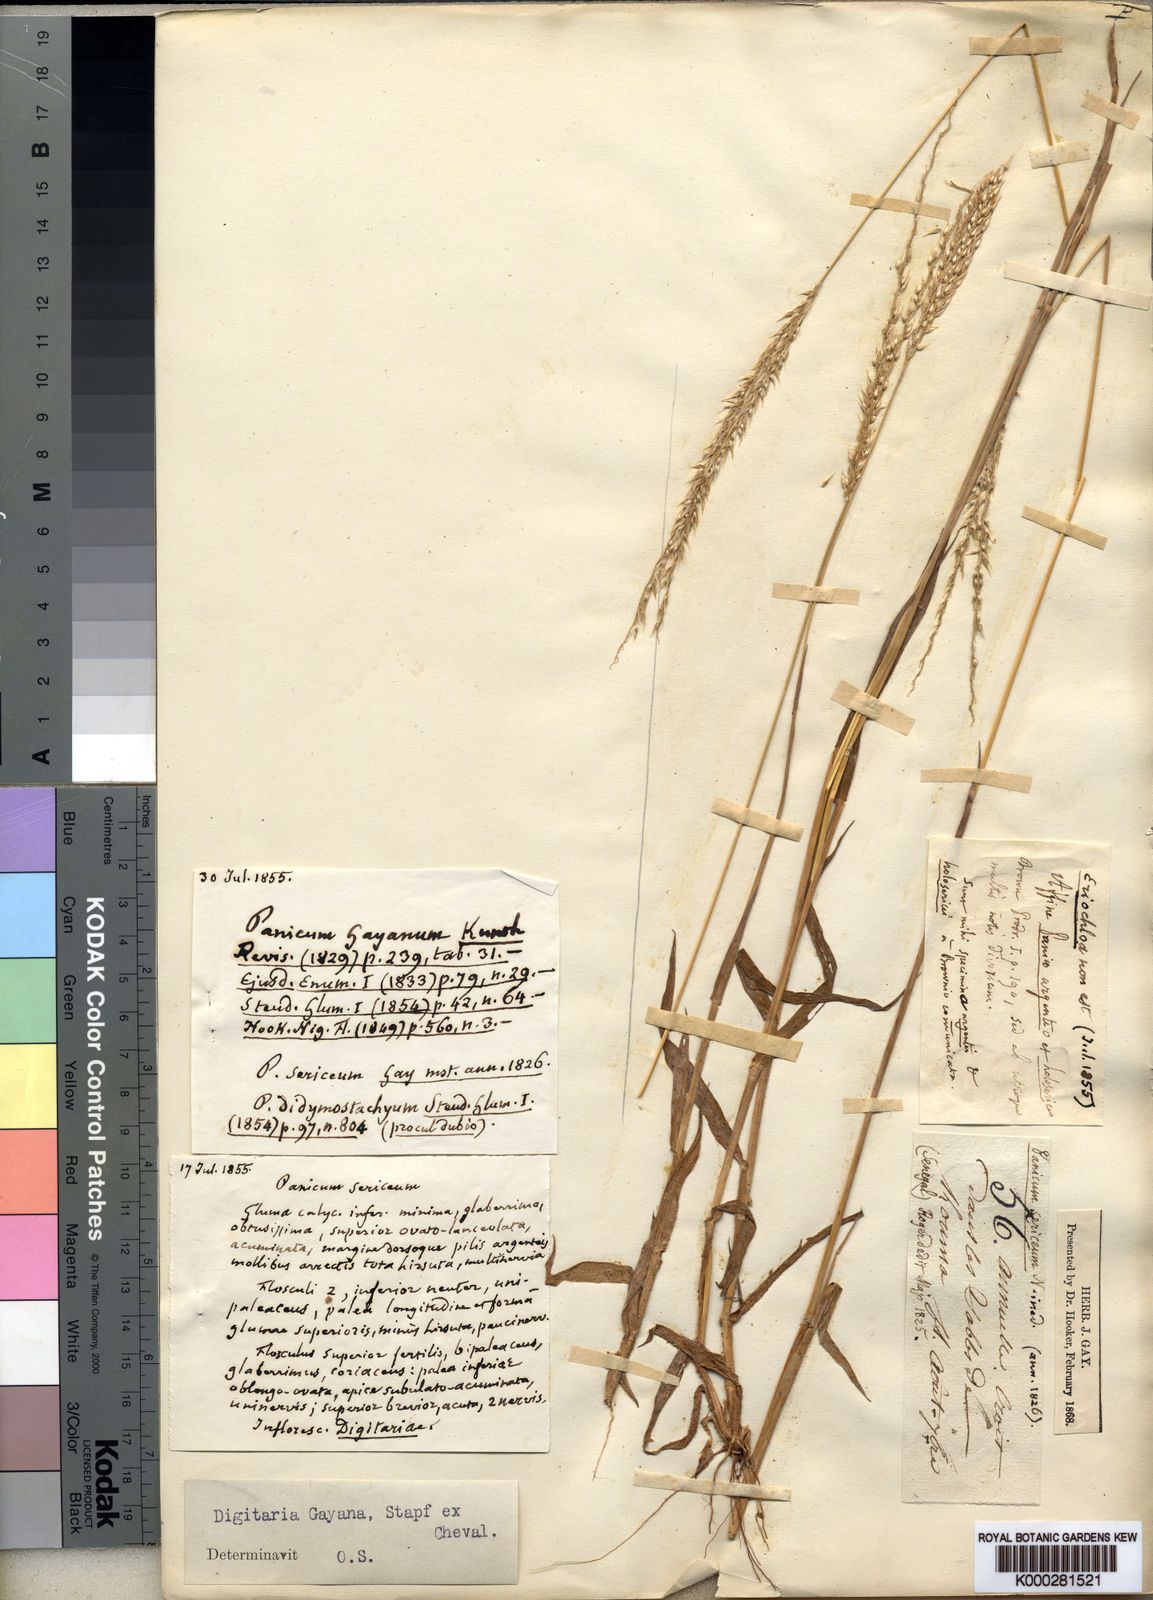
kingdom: Plantae
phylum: Tracheophyta
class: Liliopsida
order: Poales
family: Poaceae
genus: Digitaria
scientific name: Digitaria
